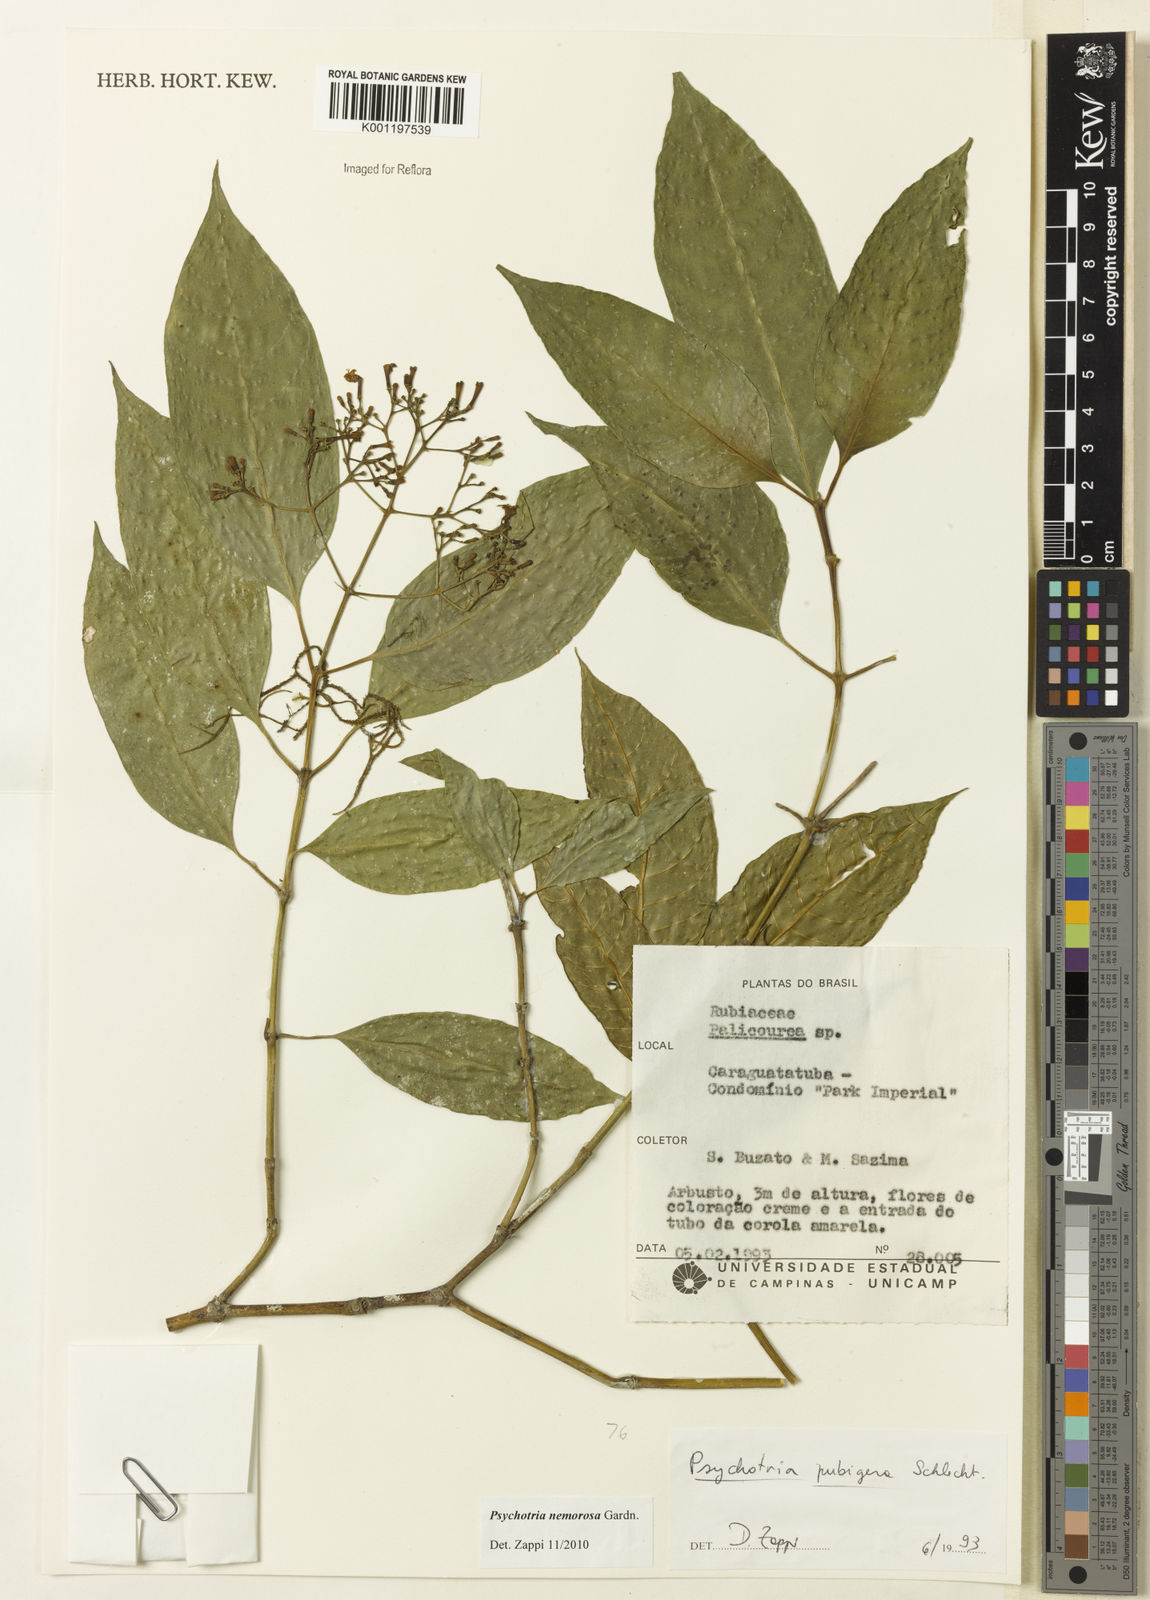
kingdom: Plantae
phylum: Tracheophyta
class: Magnoliopsida
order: Gentianales
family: Rubiaceae
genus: Psychotria
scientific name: Psychotria nemorosa
